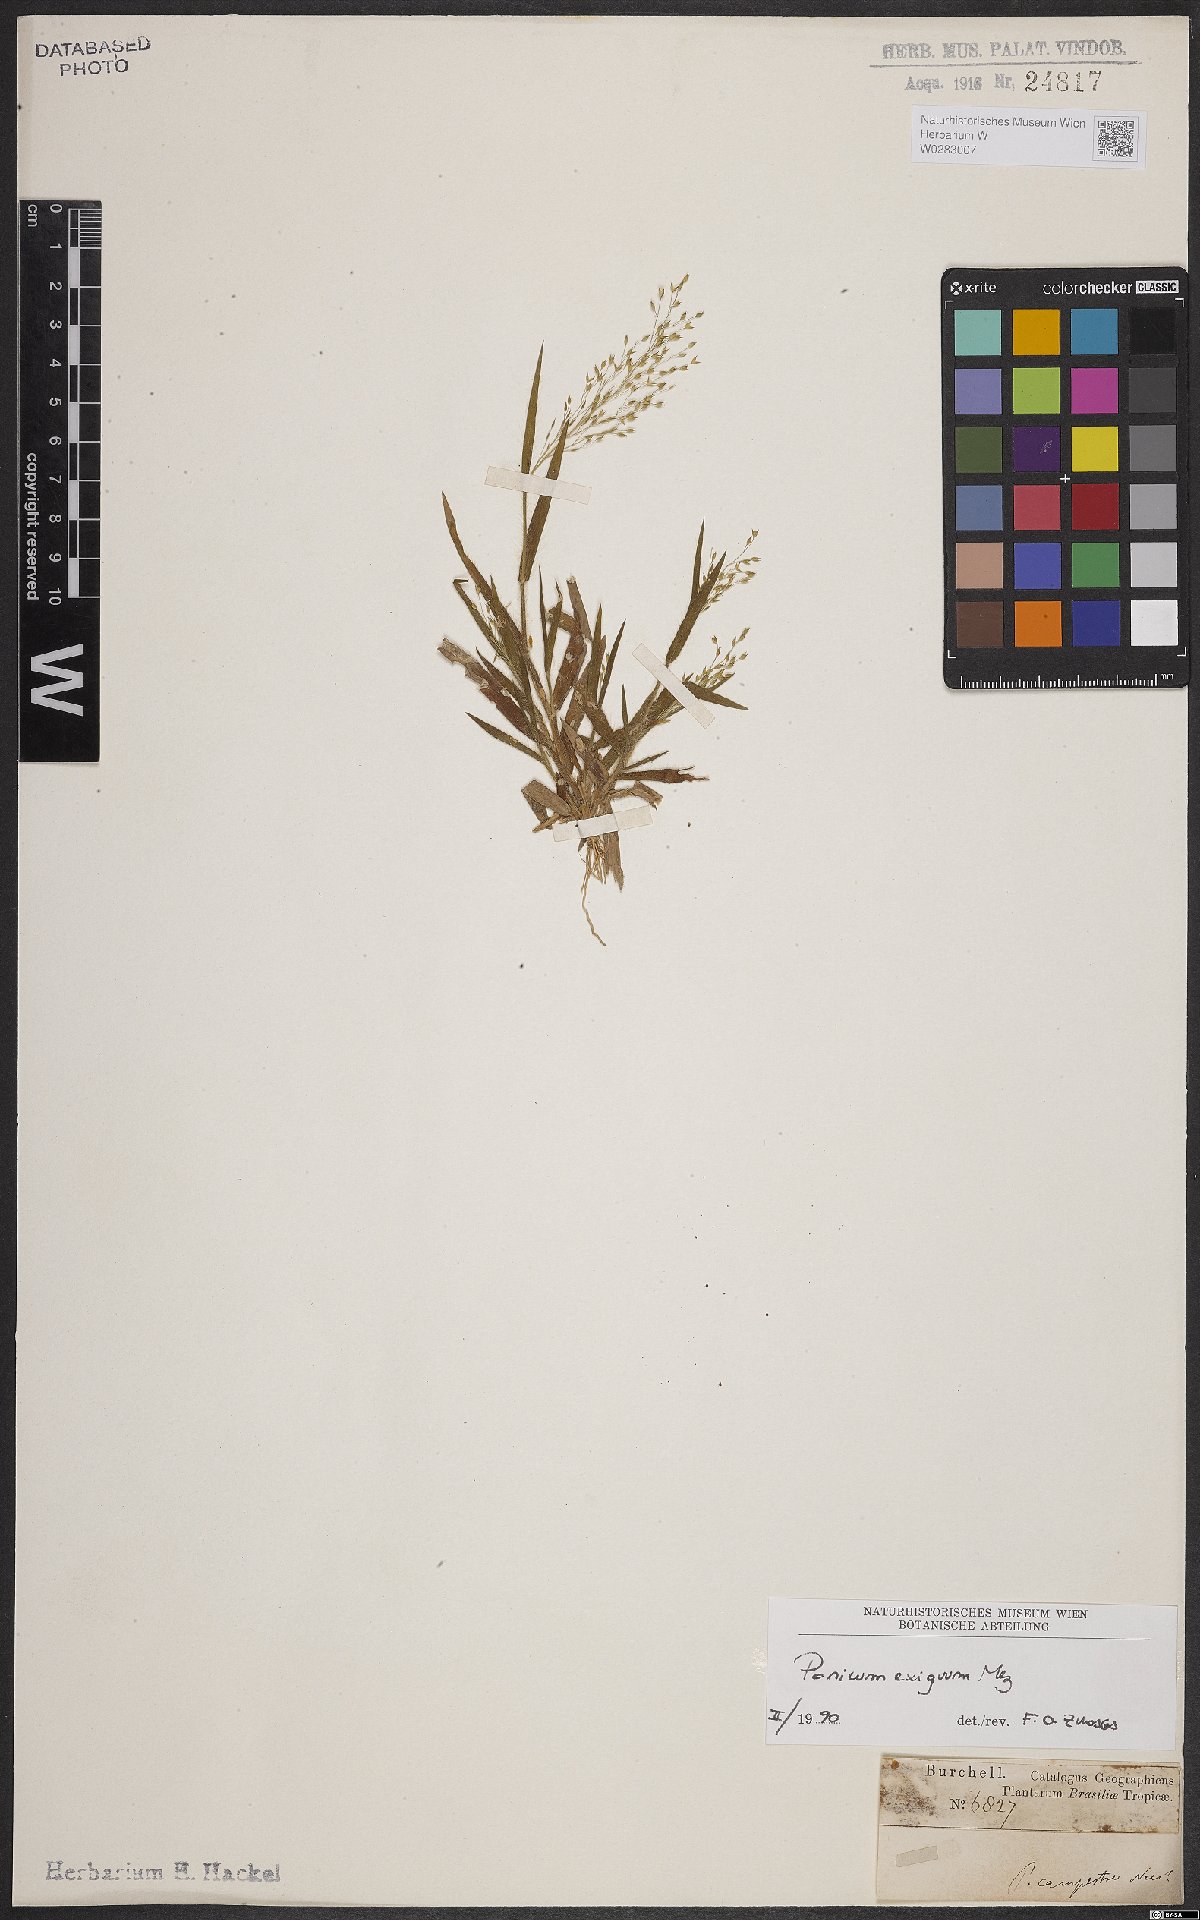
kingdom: Plantae
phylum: Tracheophyta
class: Liliopsida
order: Poales
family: Poaceae
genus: Panicum
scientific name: Panicum exiguum
